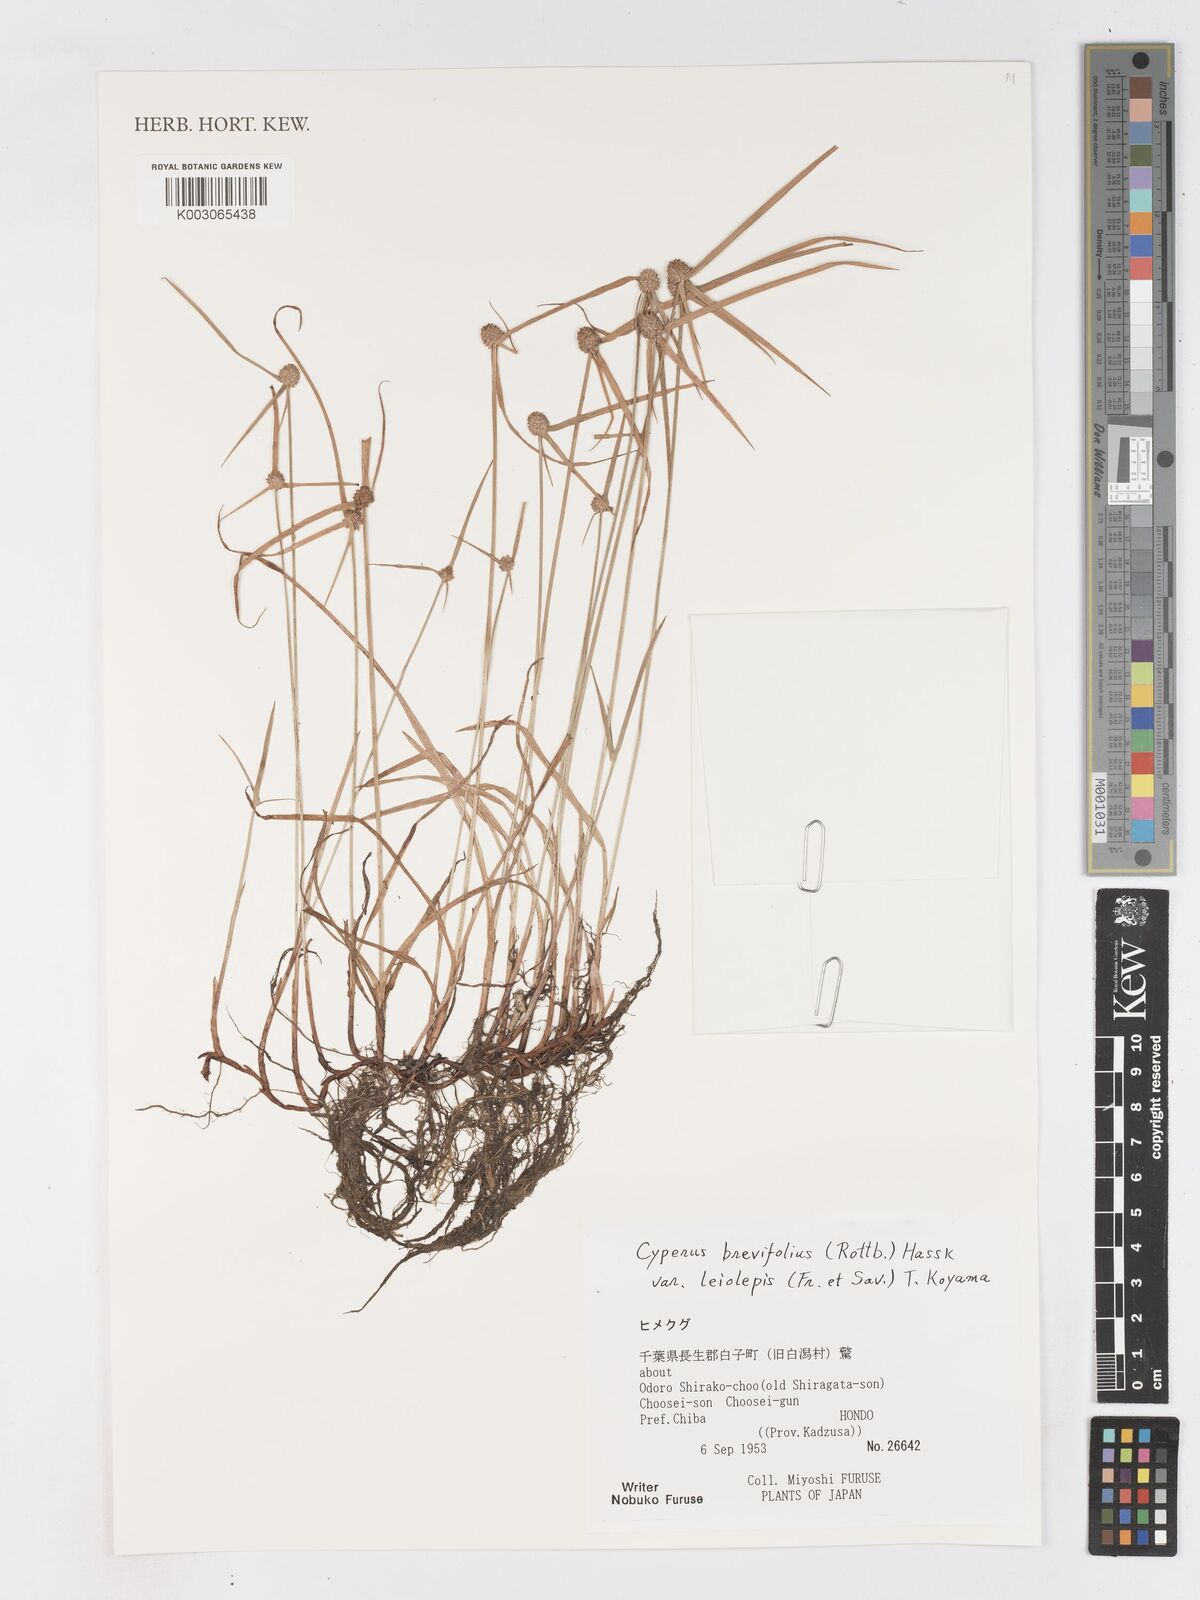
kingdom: Plantae
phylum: Tracheophyta
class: Liliopsida
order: Poales
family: Cyperaceae
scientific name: Cyperaceae
